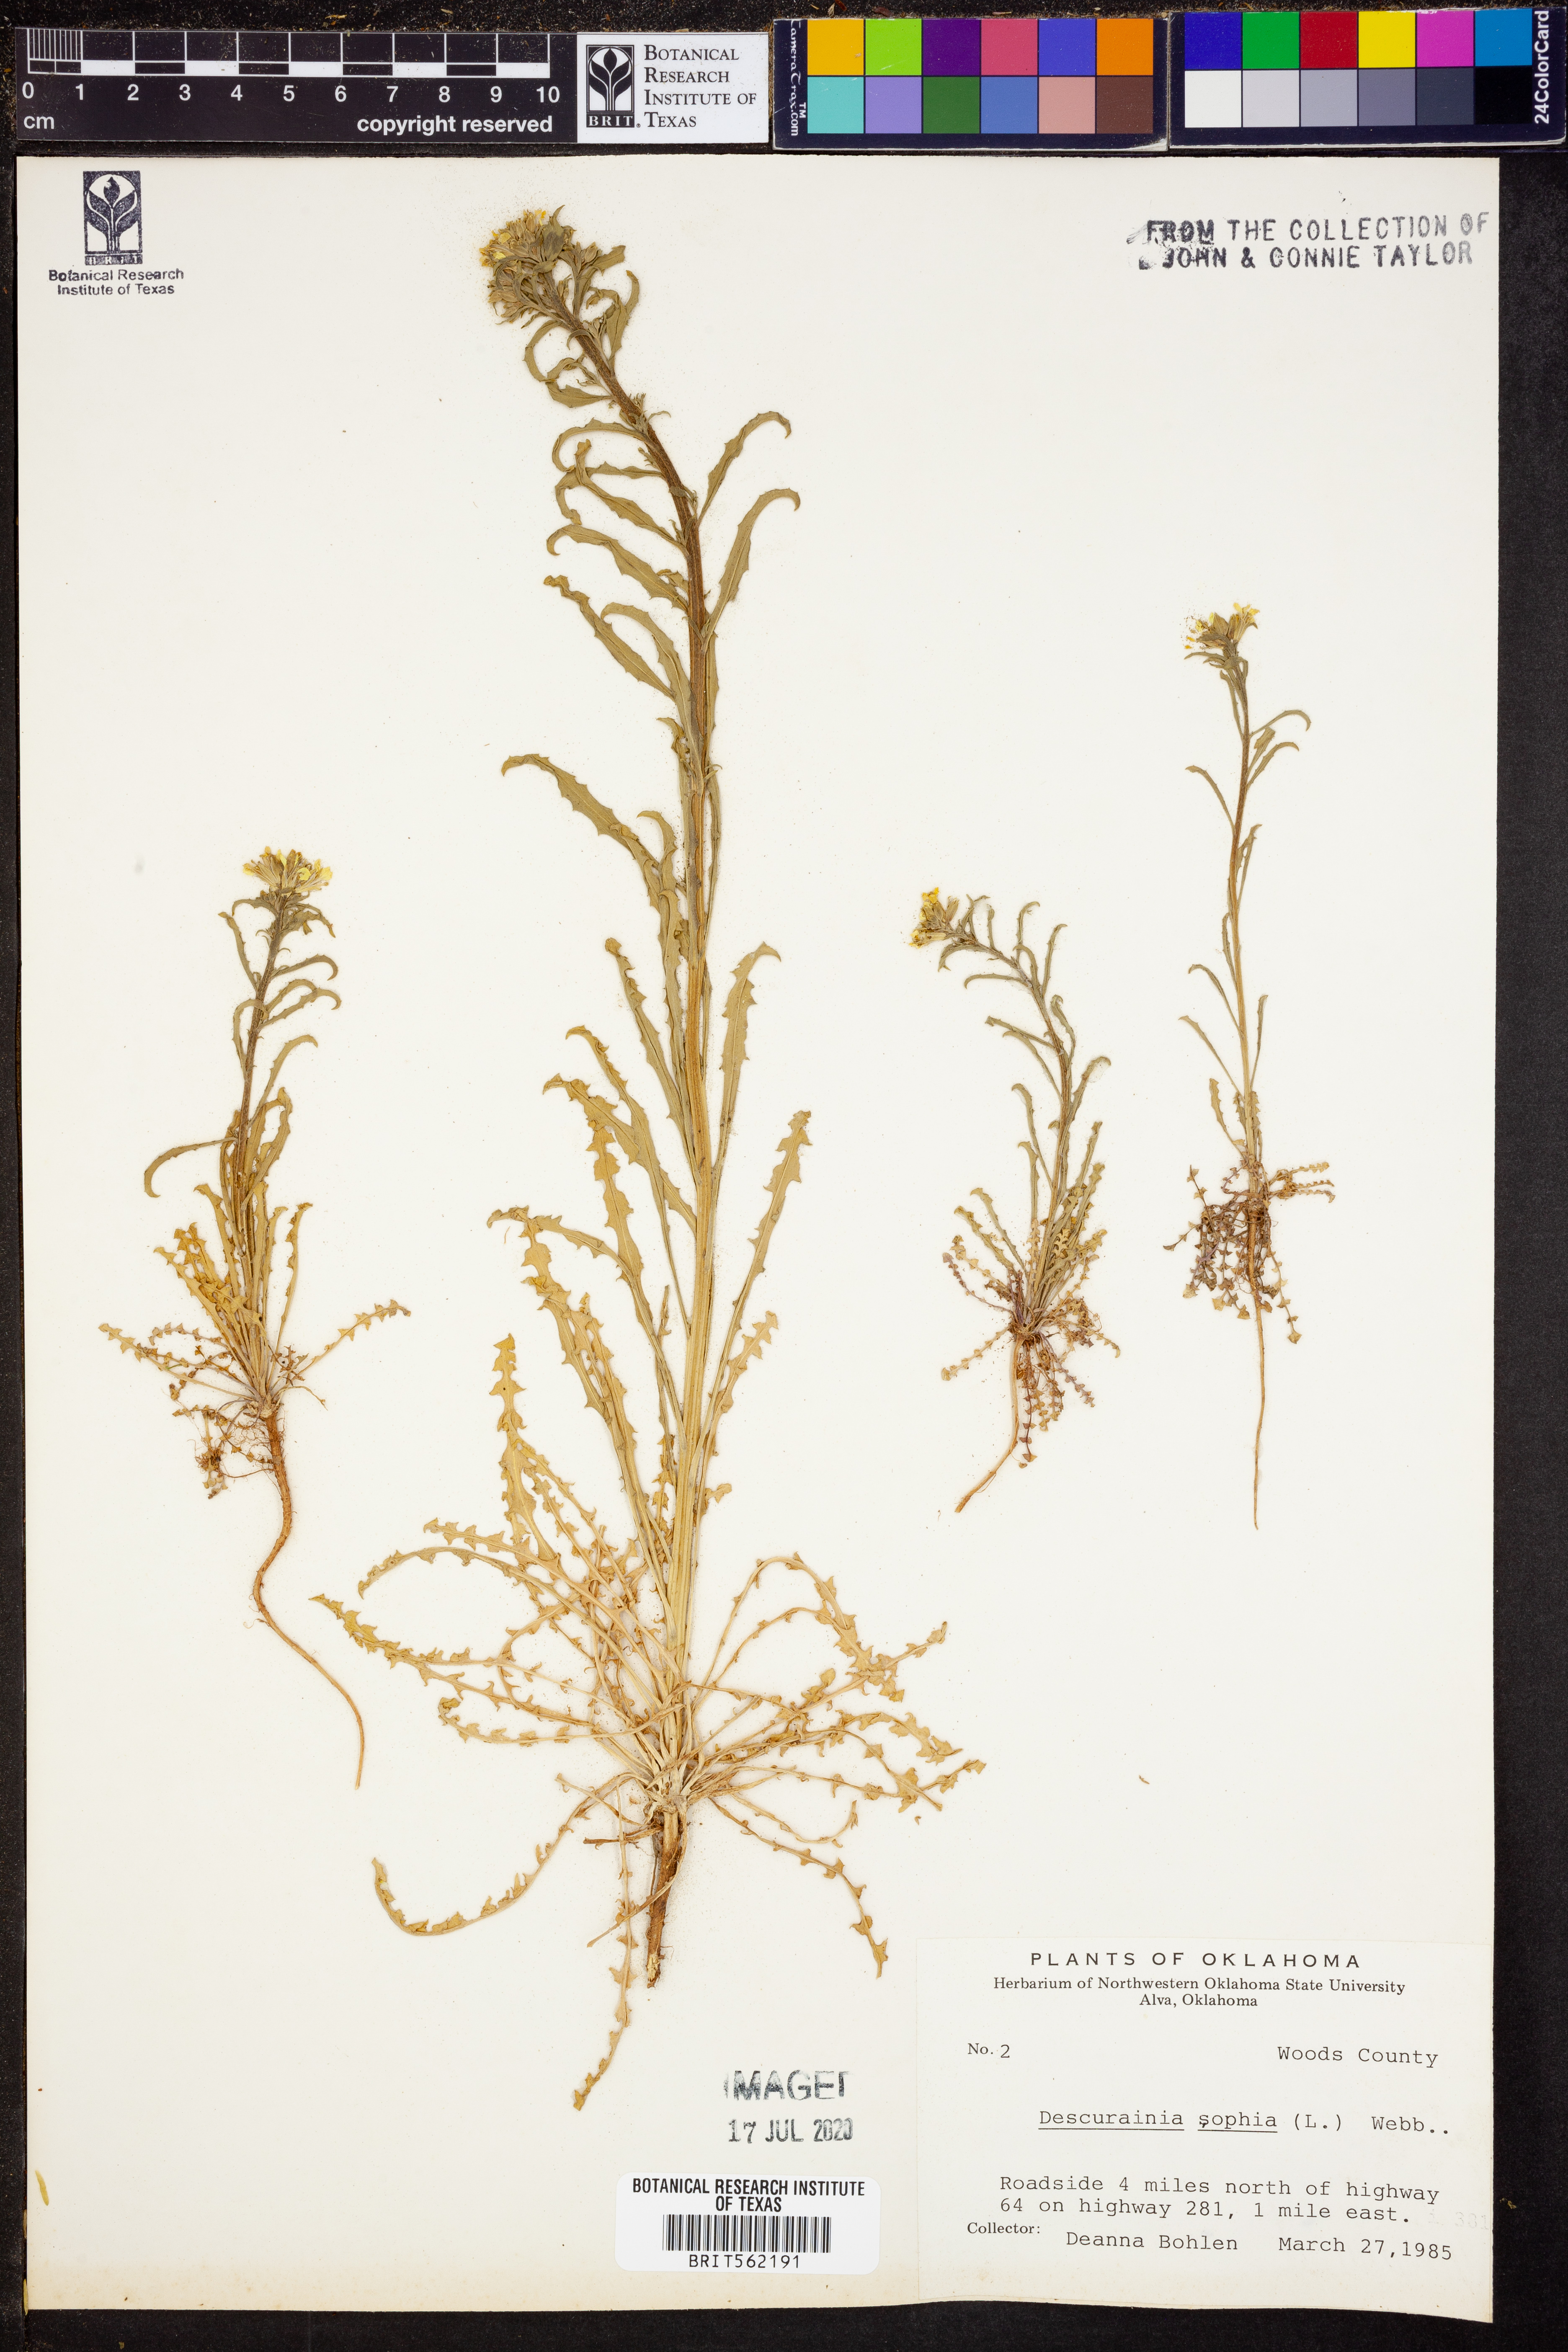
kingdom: Plantae
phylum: Tracheophyta
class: Magnoliopsida
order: Brassicales
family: Brassicaceae
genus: Descurainia
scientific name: Descurainia sophia
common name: Flixweed
